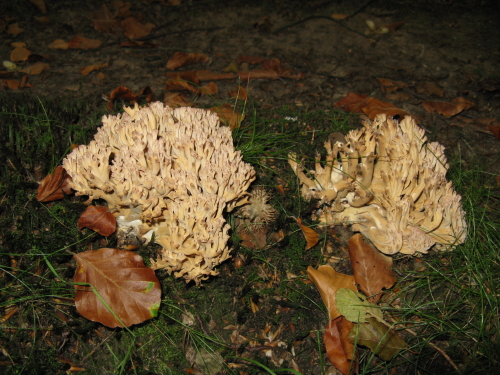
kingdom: Fungi
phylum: Basidiomycota
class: Agaricomycetes
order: Gomphales
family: Gomphaceae
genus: Ramaria
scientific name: Ramaria botrytis
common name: drue-koralsvamp
